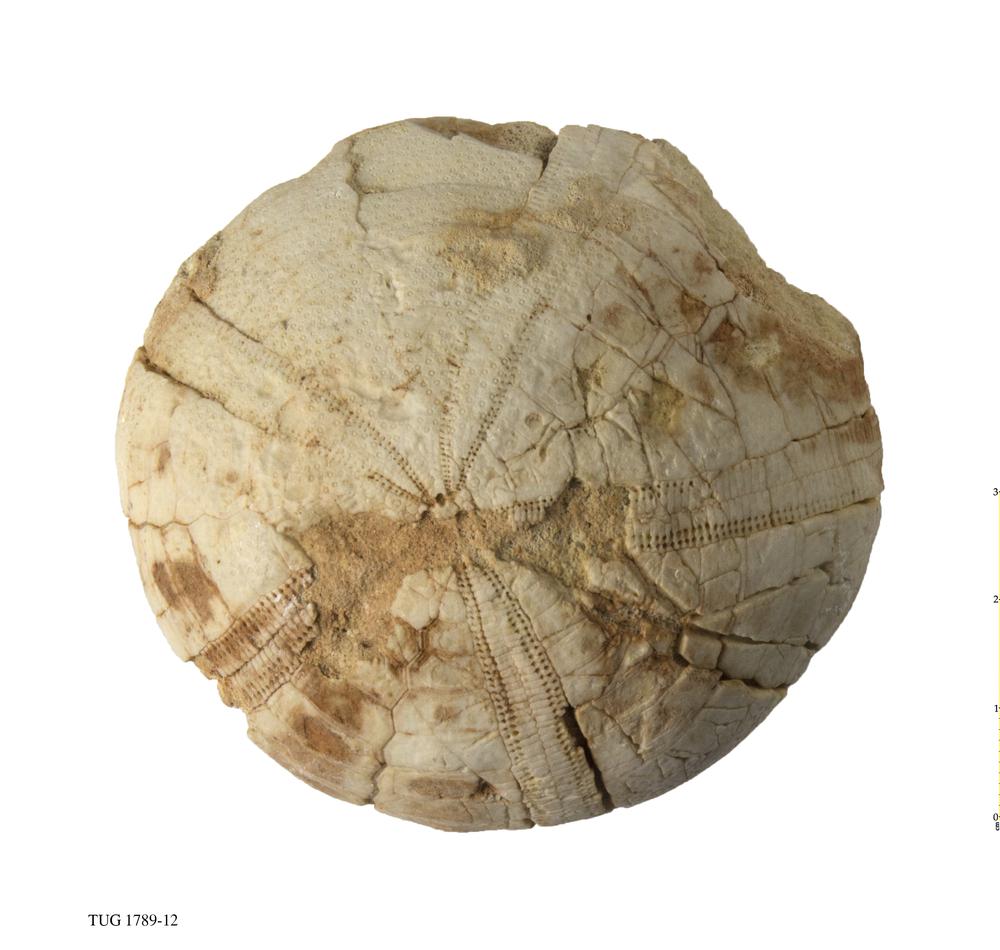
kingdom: Animalia
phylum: Echinodermata
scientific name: Echinodermata
